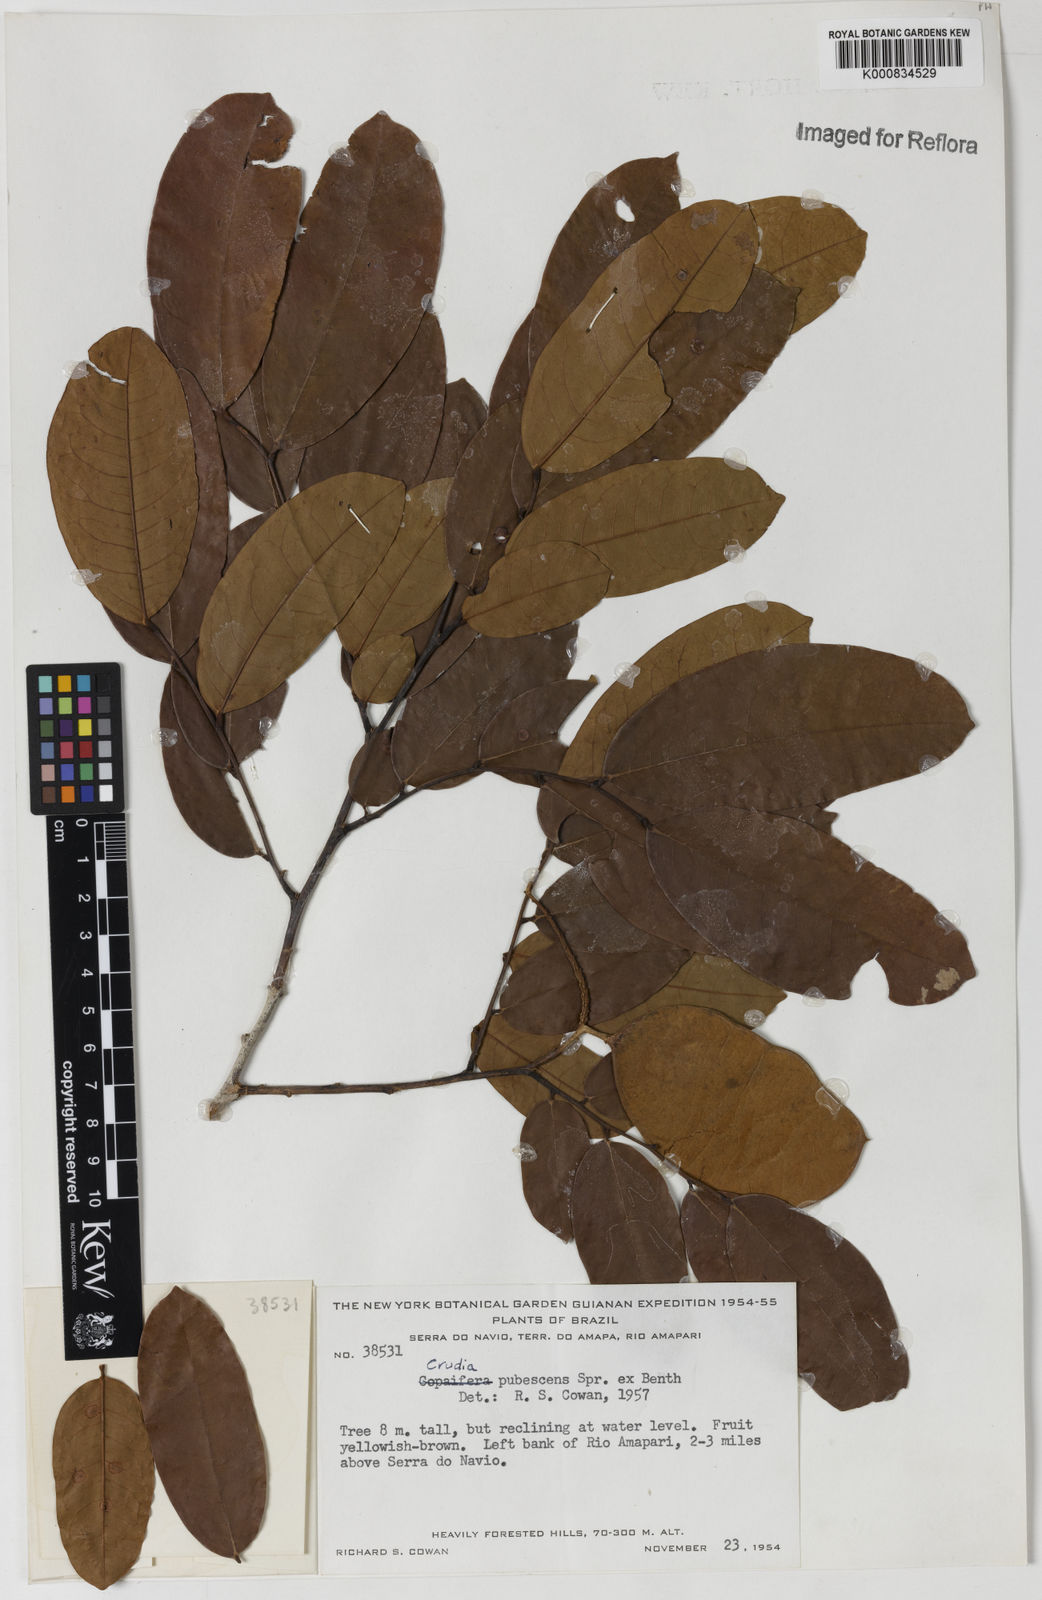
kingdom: Plantae
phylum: Tracheophyta
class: Magnoliopsida
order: Fabales
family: Fabaceae
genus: Crudia
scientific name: Crudia glaberrima
